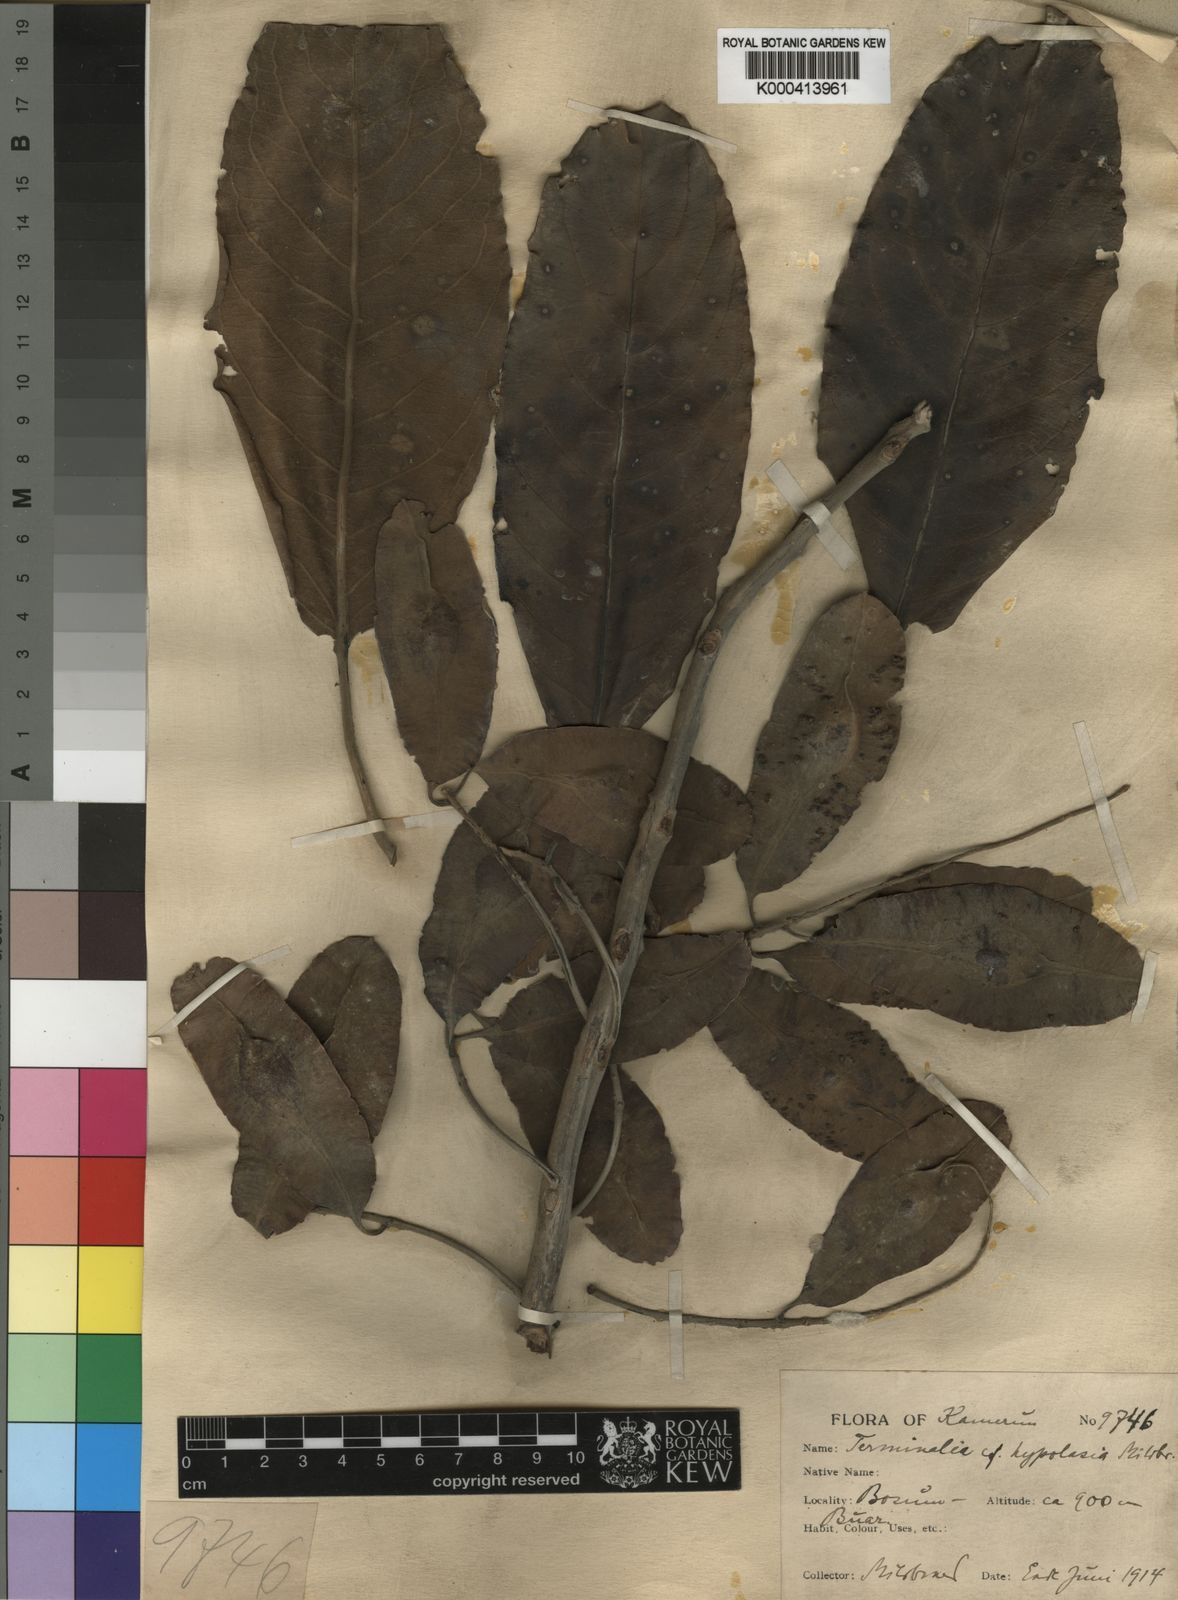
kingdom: Plantae
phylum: Tracheophyta
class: Magnoliopsida
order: Myrtales
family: Combretaceae
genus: Terminalia
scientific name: Terminalia
